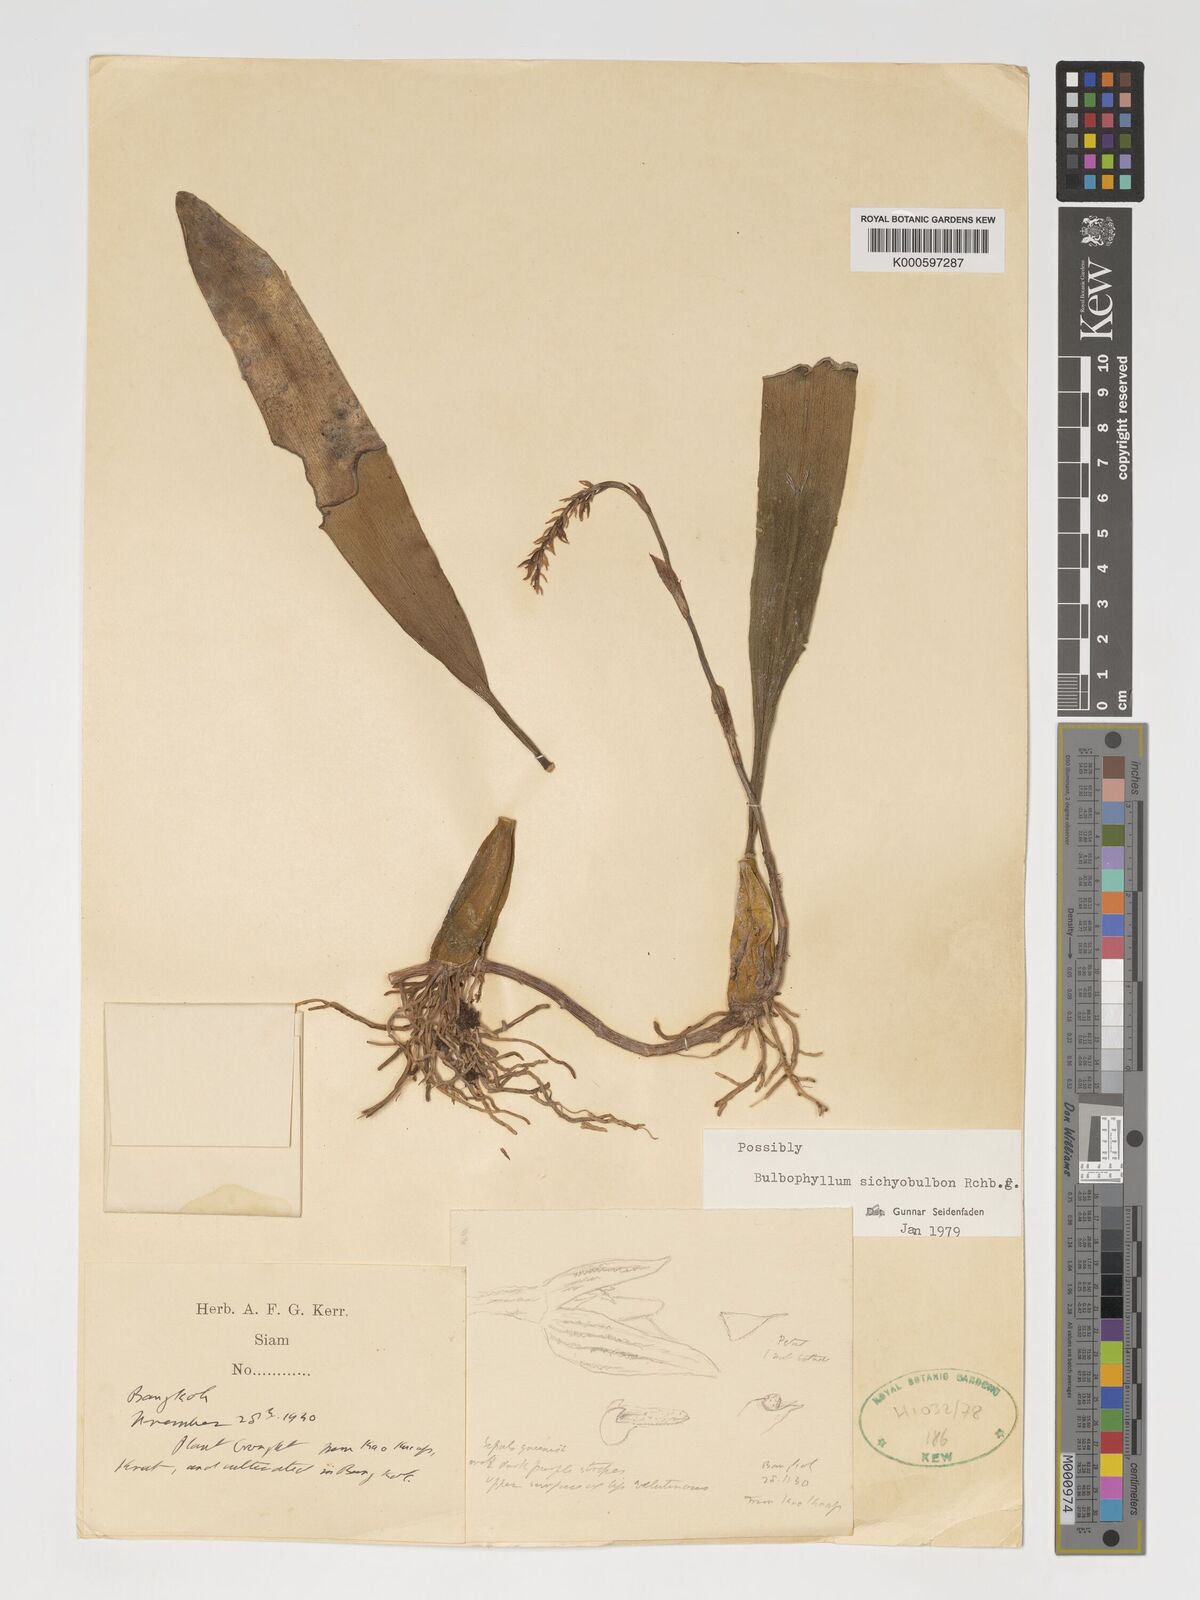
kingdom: Plantae
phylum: Tracheophyta
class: Liliopsida
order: Asparagales
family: Orchidaceae
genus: Bulbophyllum
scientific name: Bulbophyllum sicyobulbon
